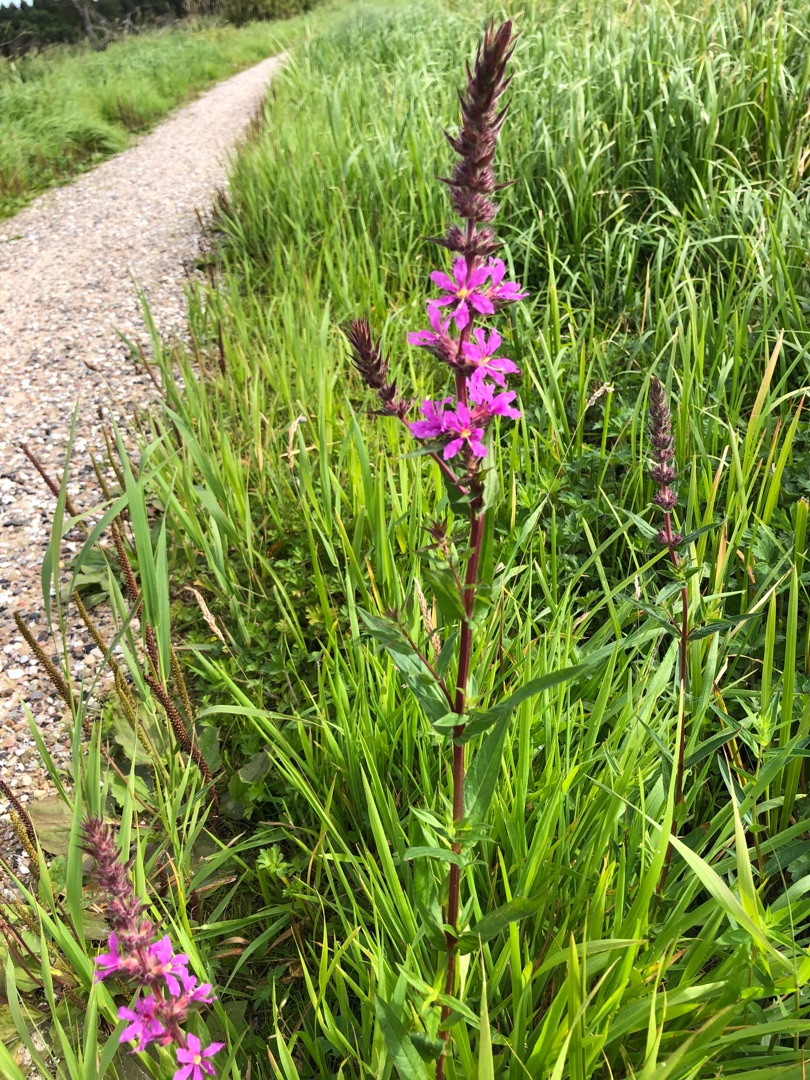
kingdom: Plantae
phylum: Tracheophyta
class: Magnoliopsida
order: Myrtales
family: Lythraceae
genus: Lythrum
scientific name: Lythrum salicaria
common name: Kattehale
